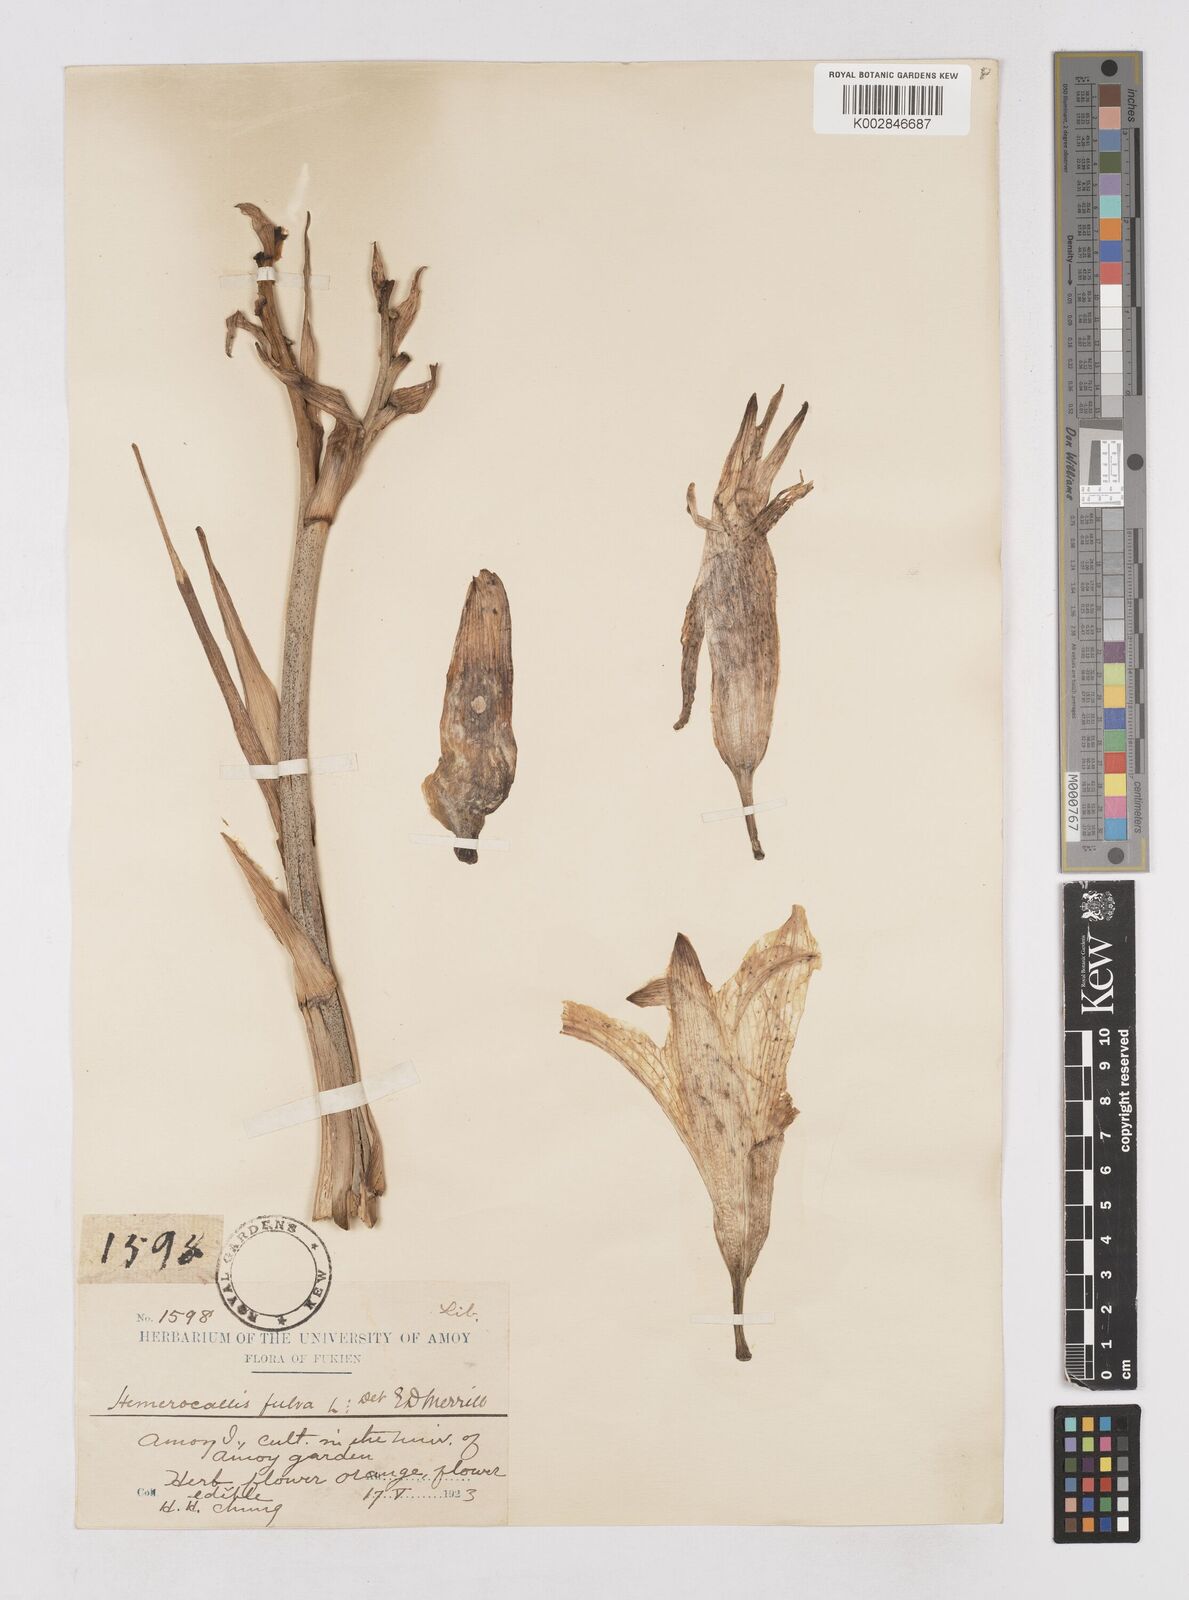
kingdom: Plantae
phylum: Tracheophyta
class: Liliopsida
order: Asparagales
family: Asphodelaceae
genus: Hemerocallis
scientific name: Hemerocallis fulva
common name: Orange day-lily
